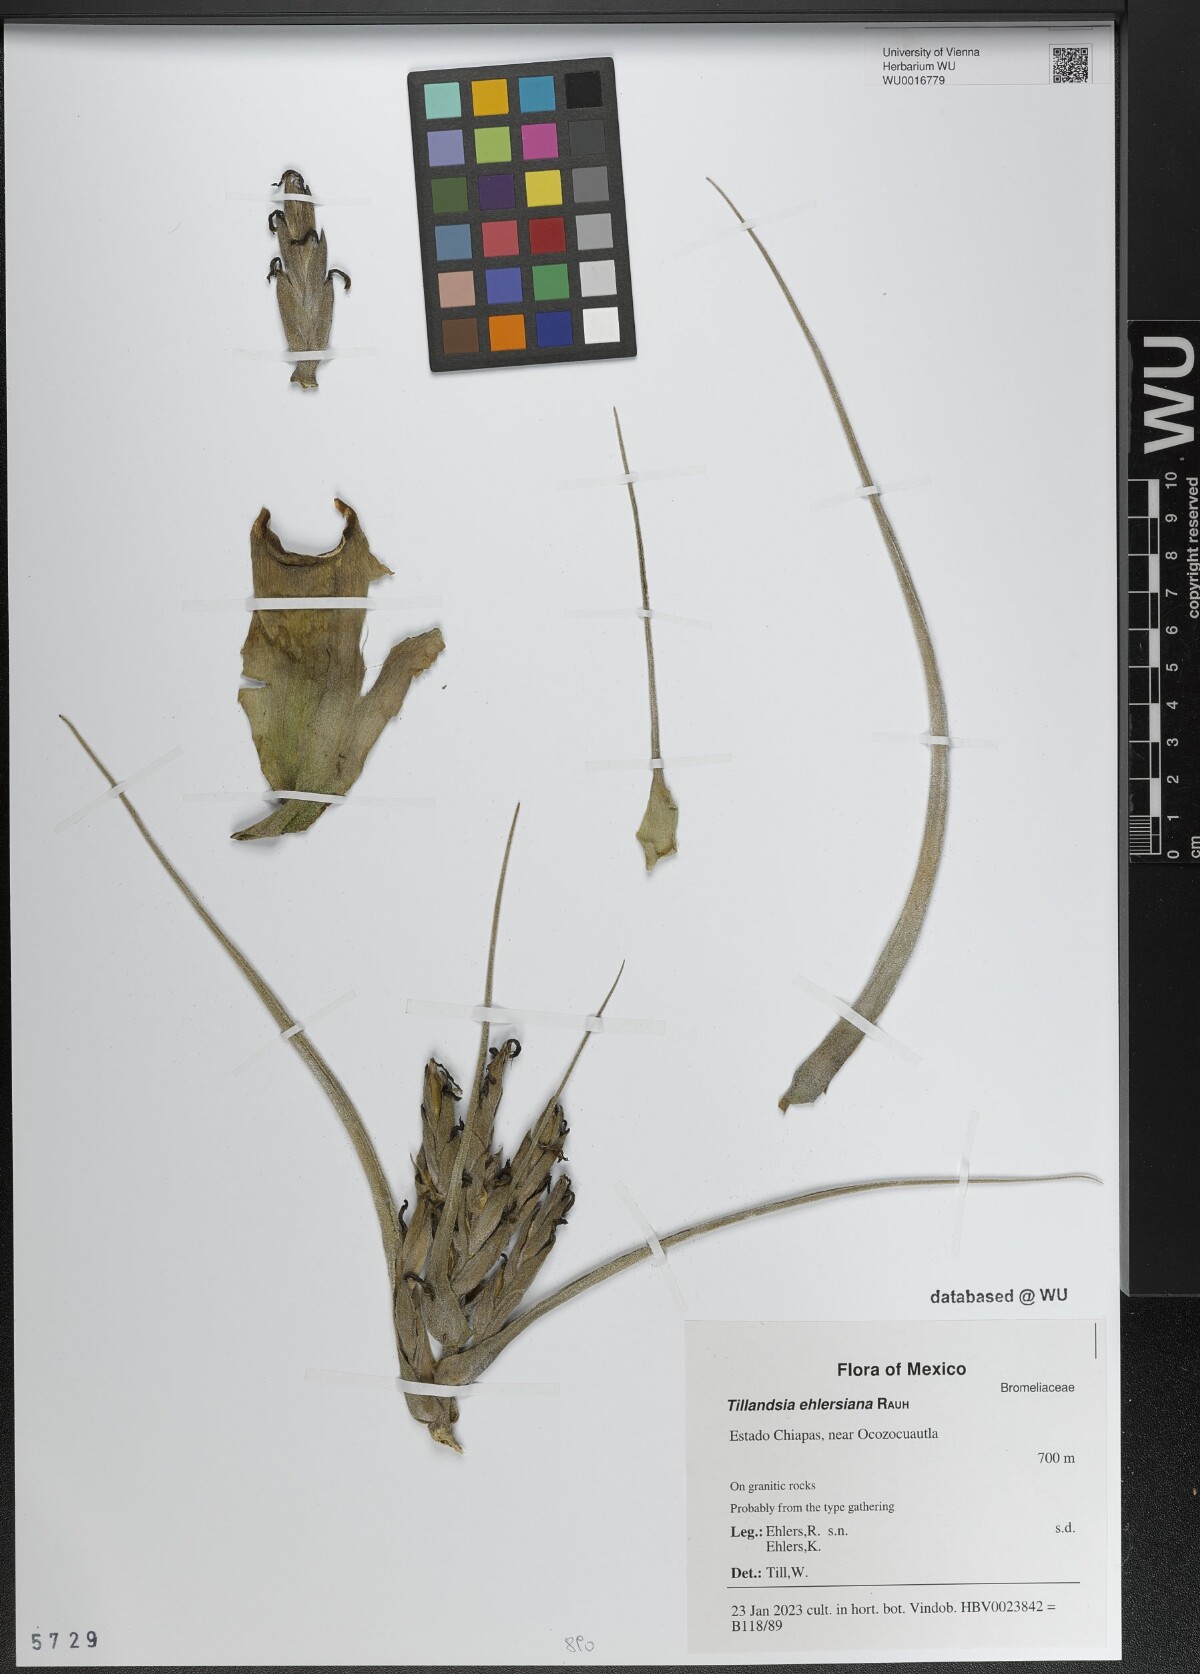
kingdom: Plantae
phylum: Tracheophyta
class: Liliopsida
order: Poales
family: Bromeliaceae
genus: Tillandsia
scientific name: Tillandsia seleriana
